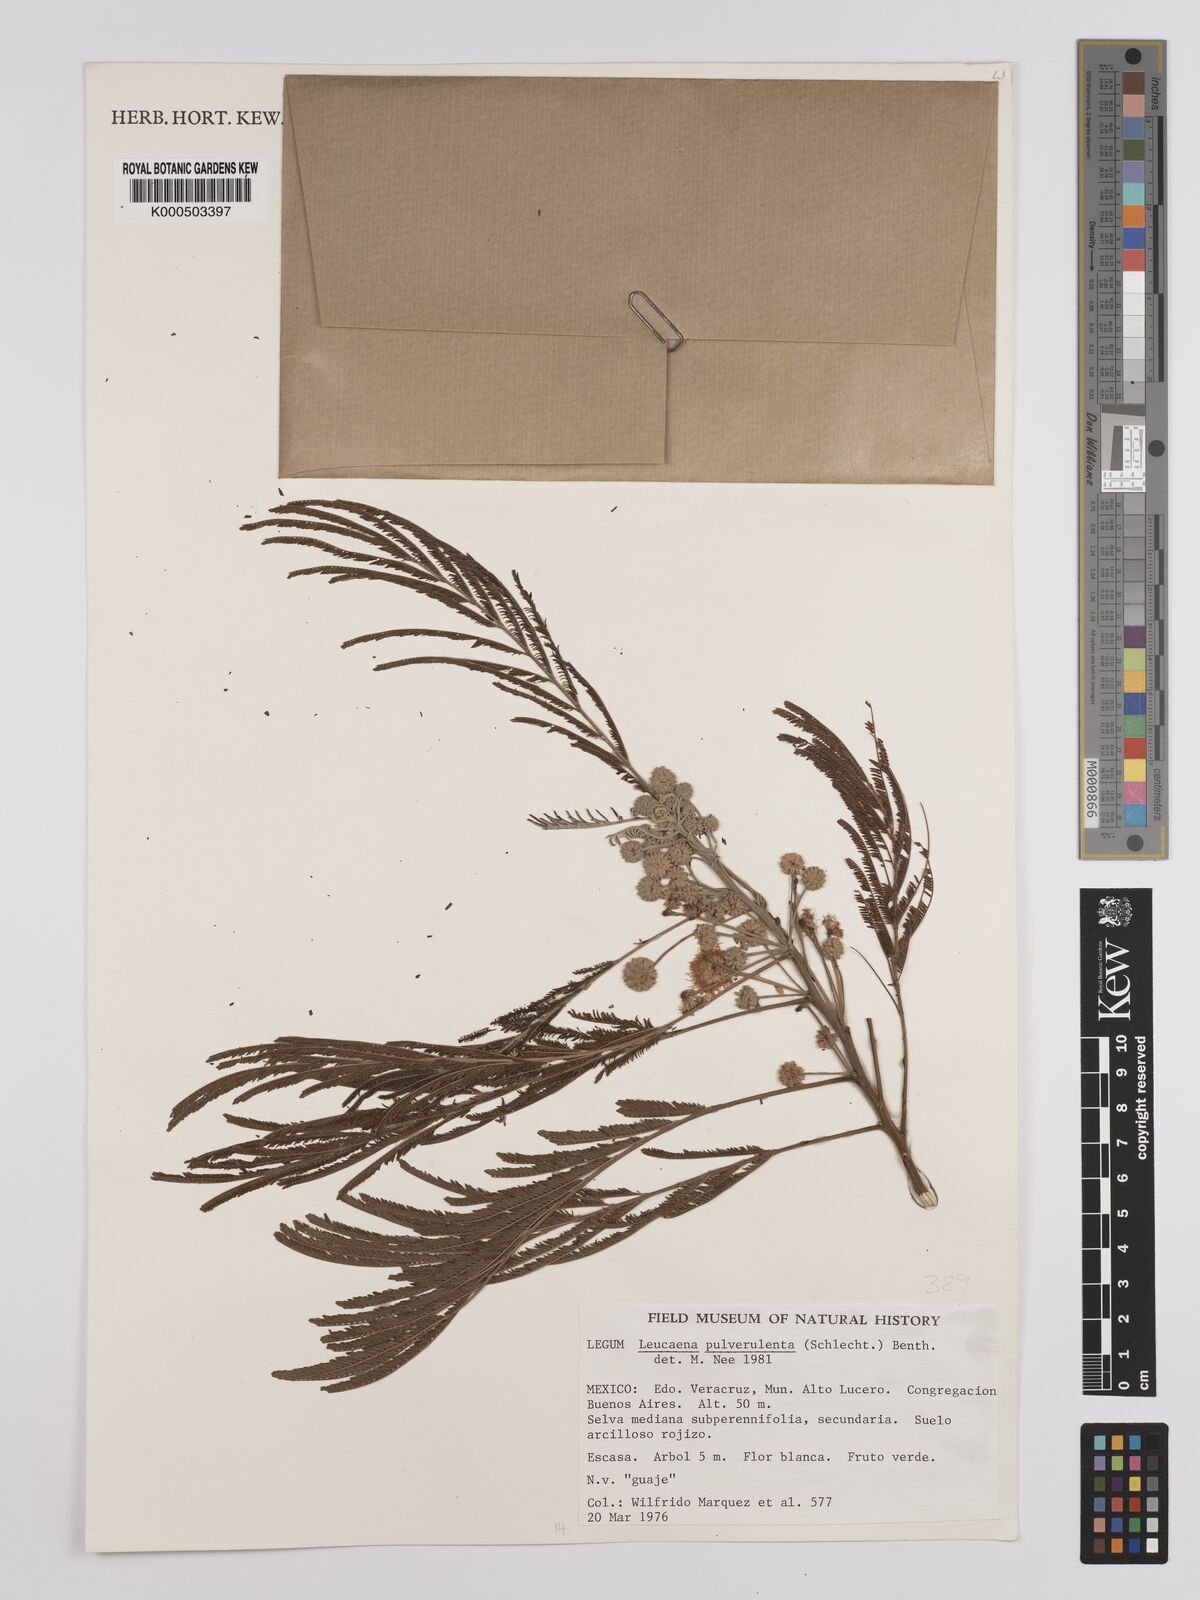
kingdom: Plantae
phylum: Tracheophyta
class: Magnoliopsida
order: Fabales
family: Fabaceae
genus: Leucaena
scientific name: Leucaena pulverulenta
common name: Great leadtree
